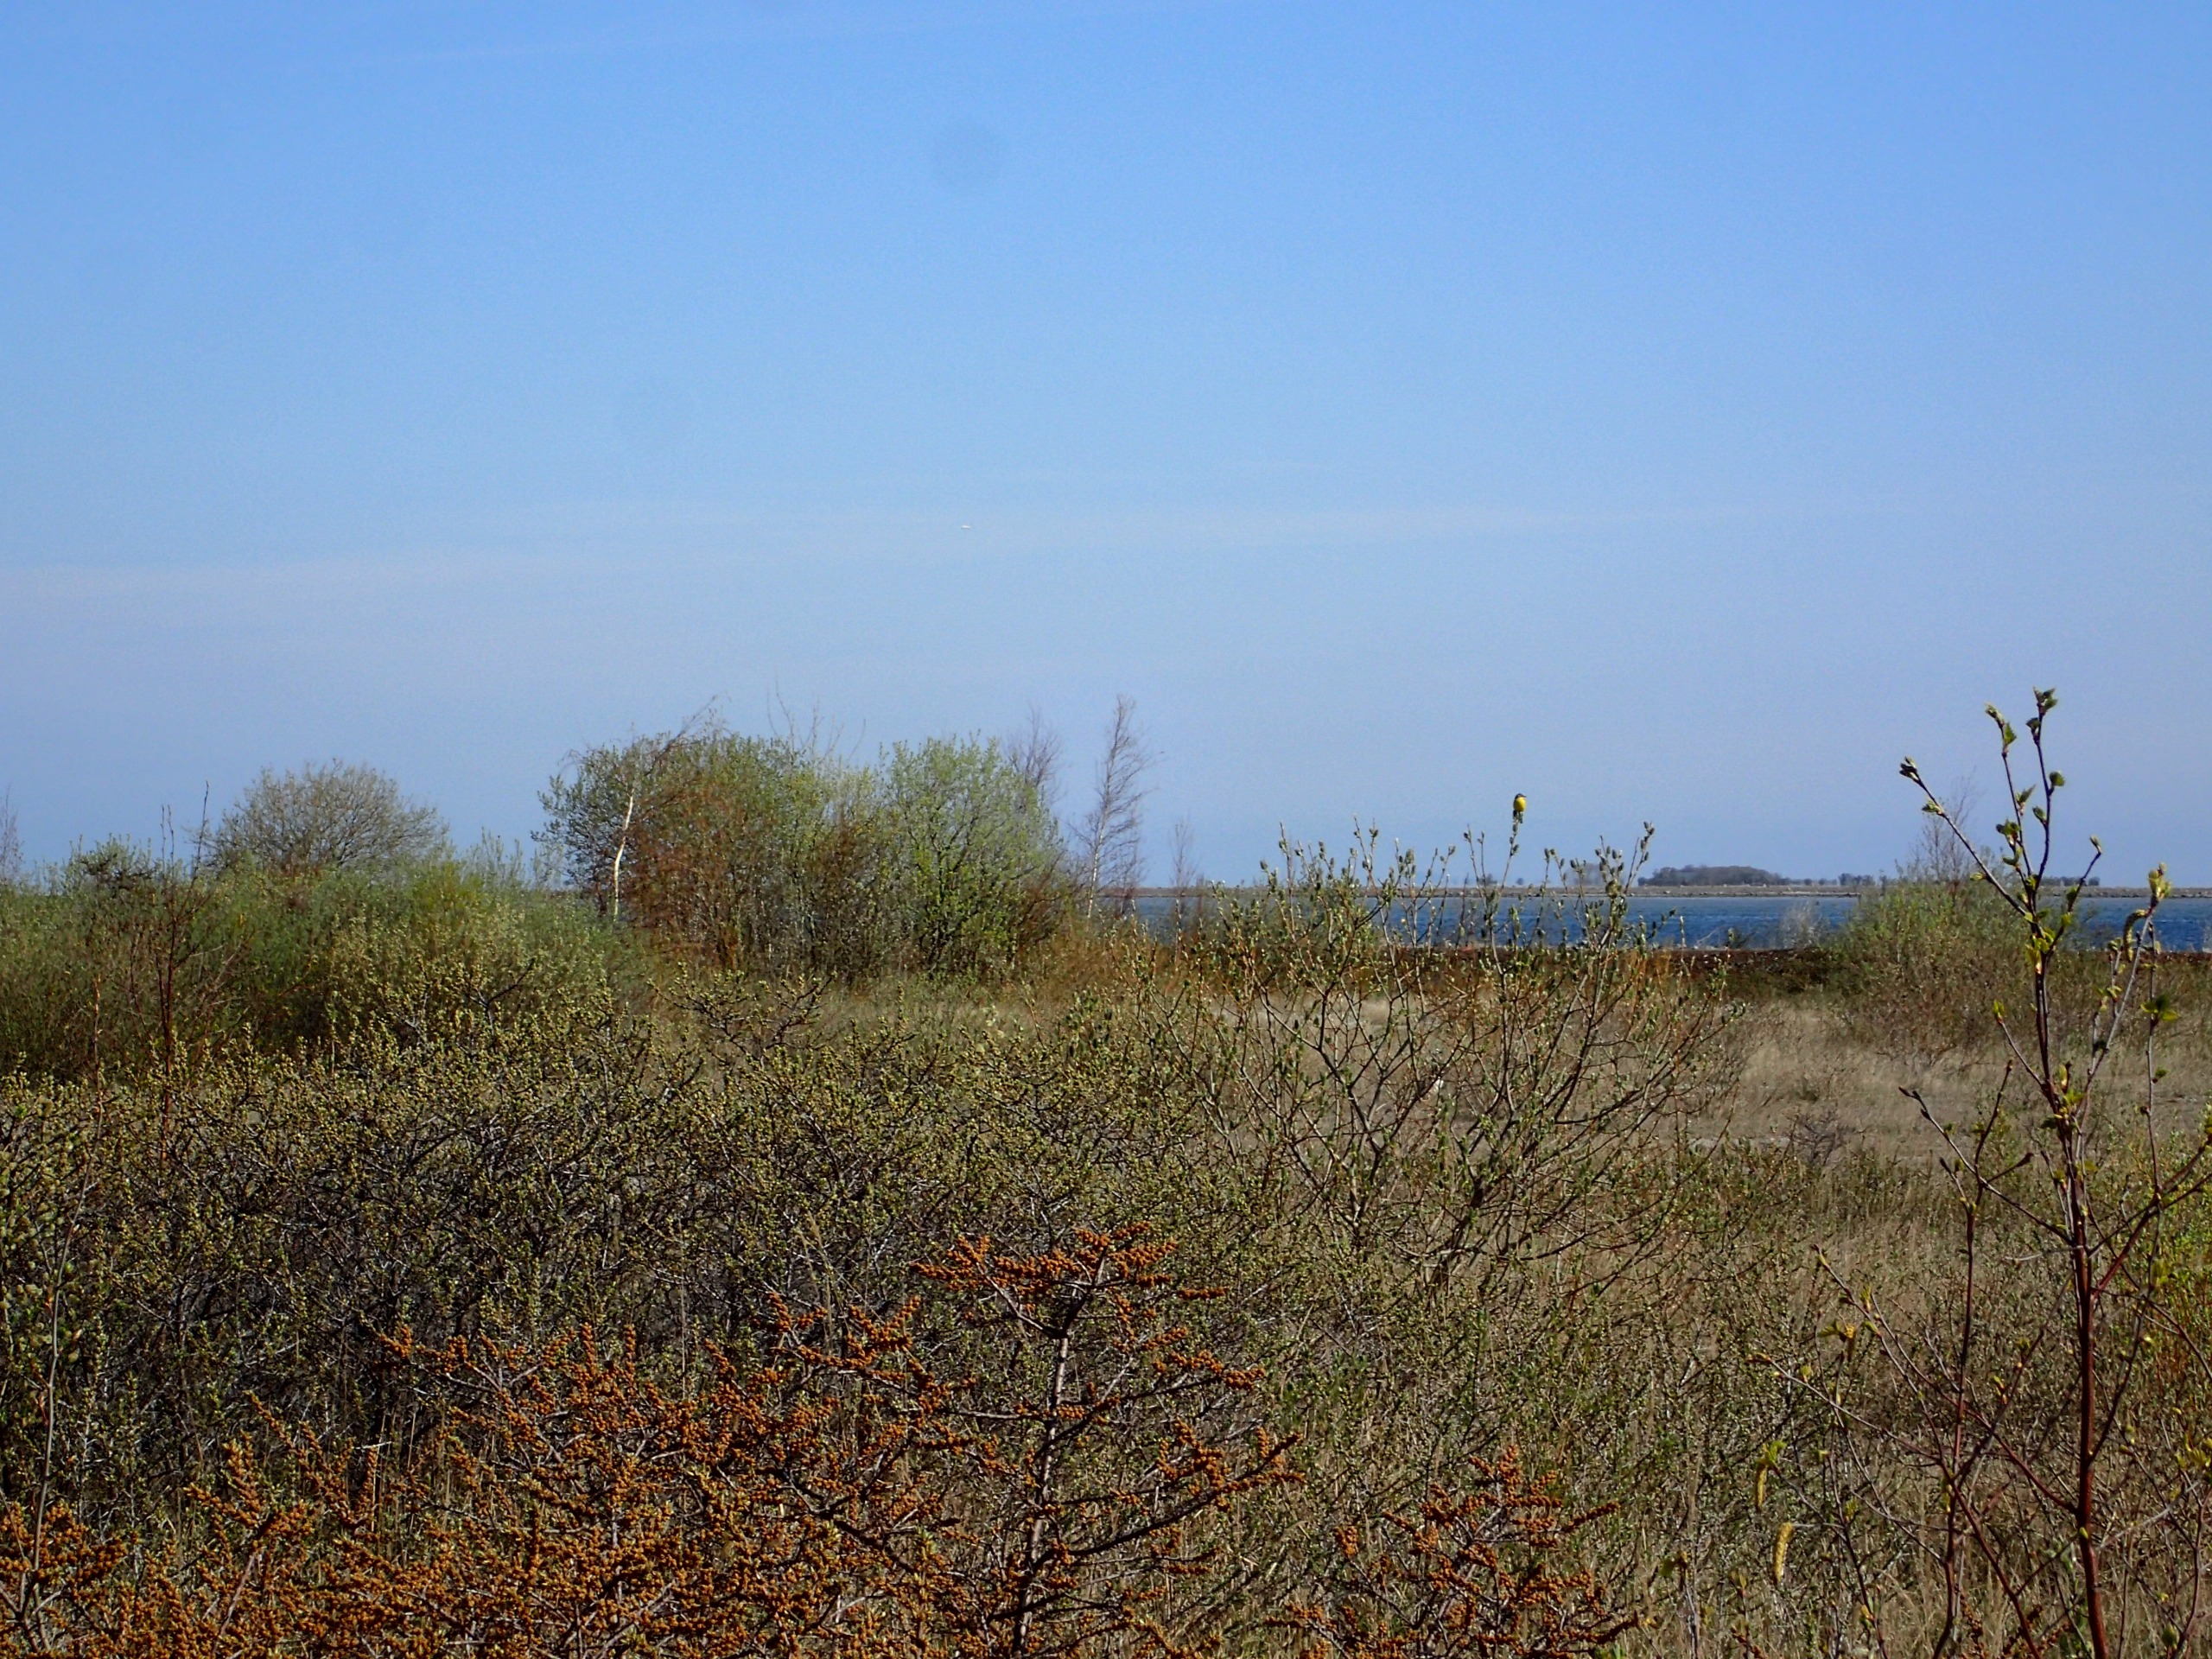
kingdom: Animalia
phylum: Chordata
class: Aves
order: Passeriformes
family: Motacillidae
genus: Motacilla
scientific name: Motacilla flava
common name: Gul vipstjert
